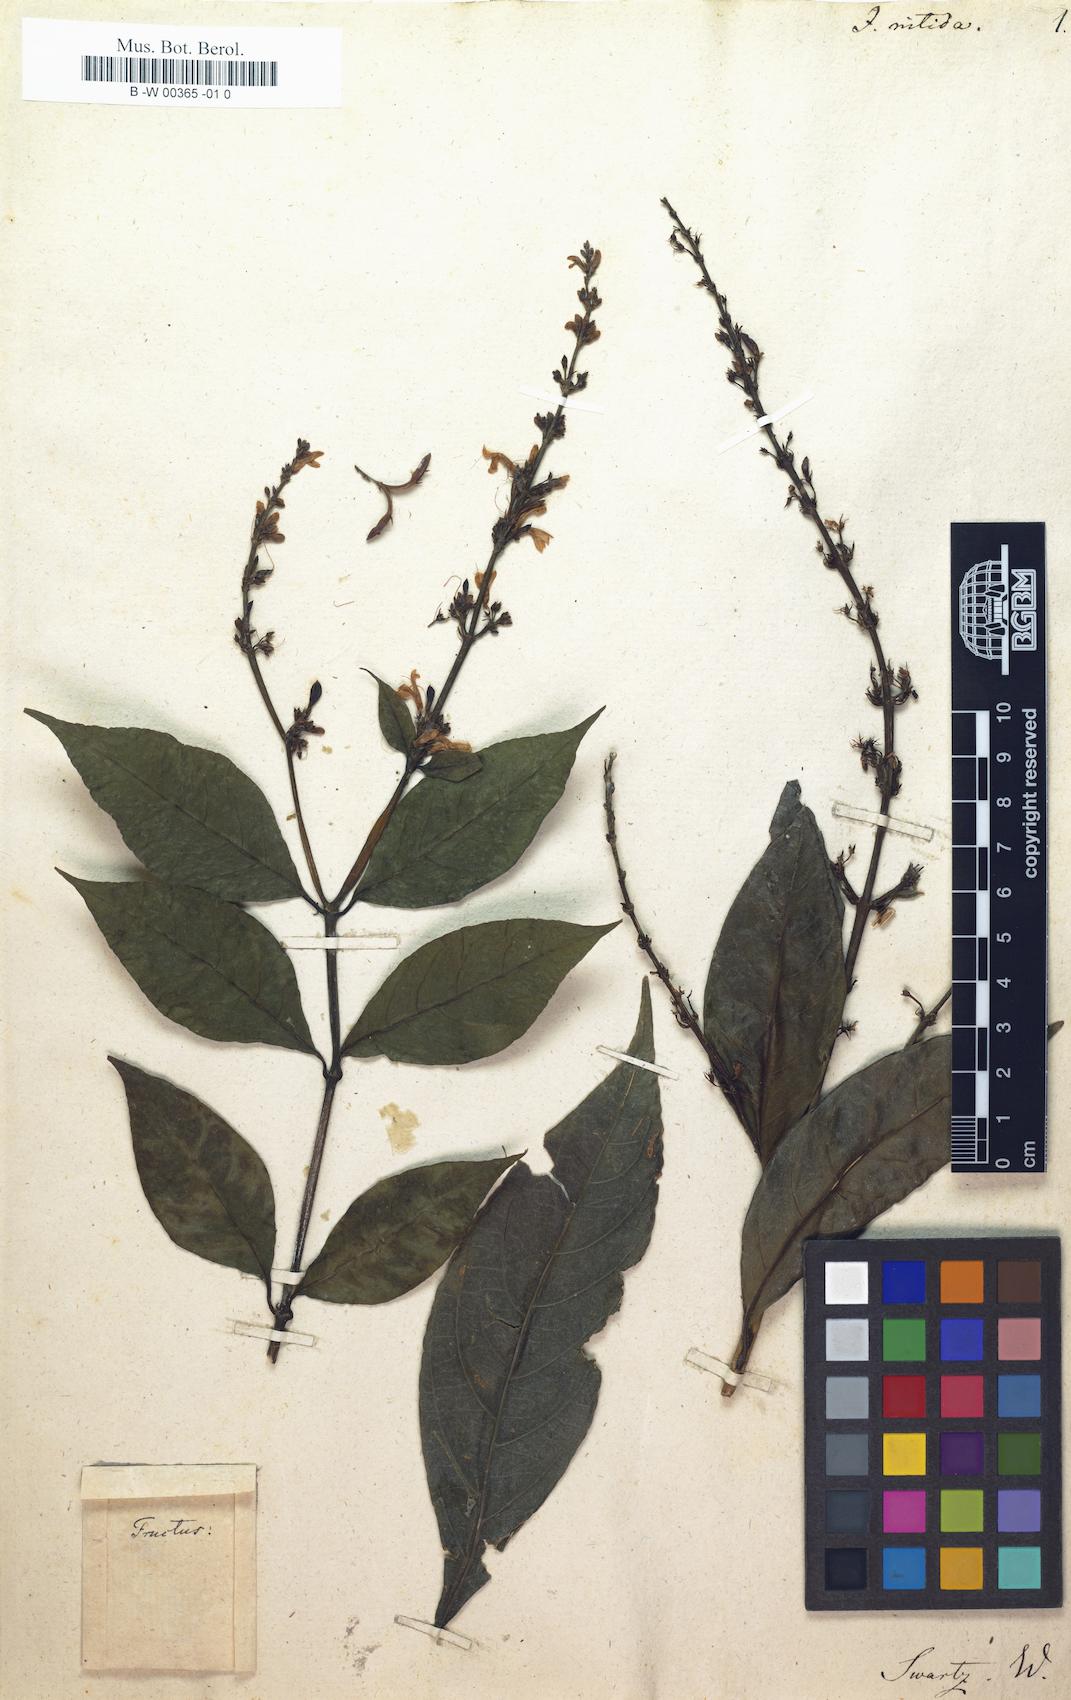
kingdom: Plantae
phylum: Tracheophyta
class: Magnoliopsida
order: Lamiales
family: Acanthaceae
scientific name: Acanthaceae
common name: Acanthaceae
